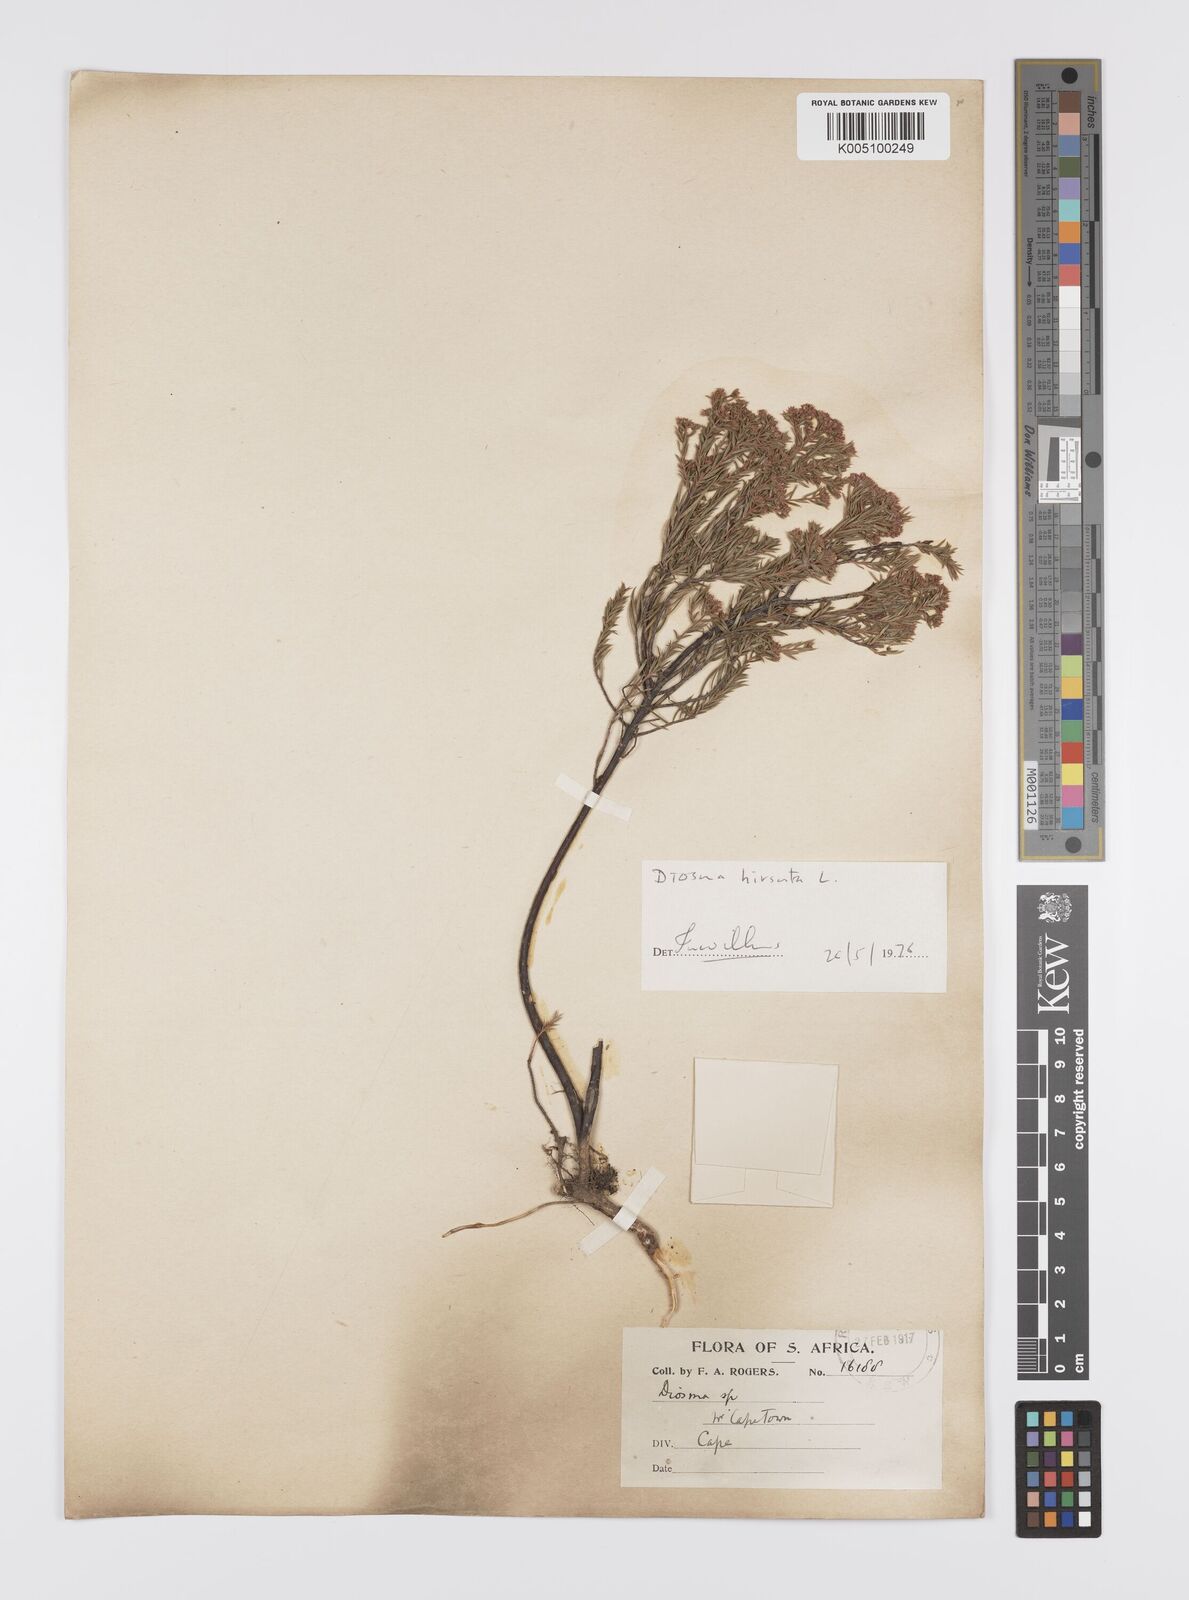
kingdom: Plantae
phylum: Tracheophyta
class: Magnoliopsida
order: Sapindales
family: Rutaceae
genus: Diosma
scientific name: Diosma hirsuta
